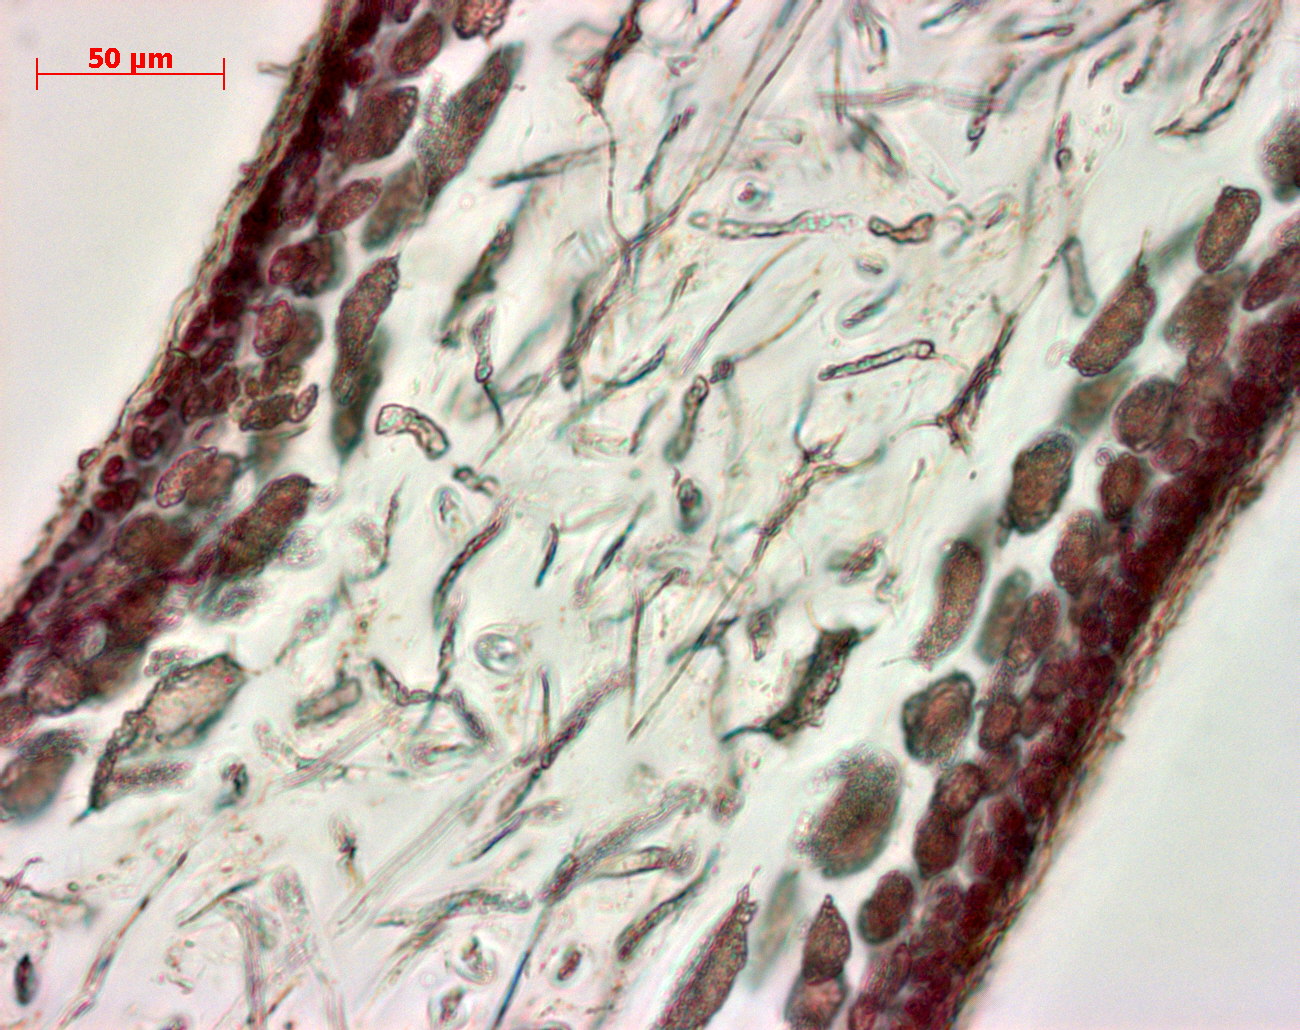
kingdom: Plantae
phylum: Rhodophyta
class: Florideophyceae
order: Gigartinales
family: Kallymeniaceae
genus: Psaromenia
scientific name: Psaromenia berggrenii
